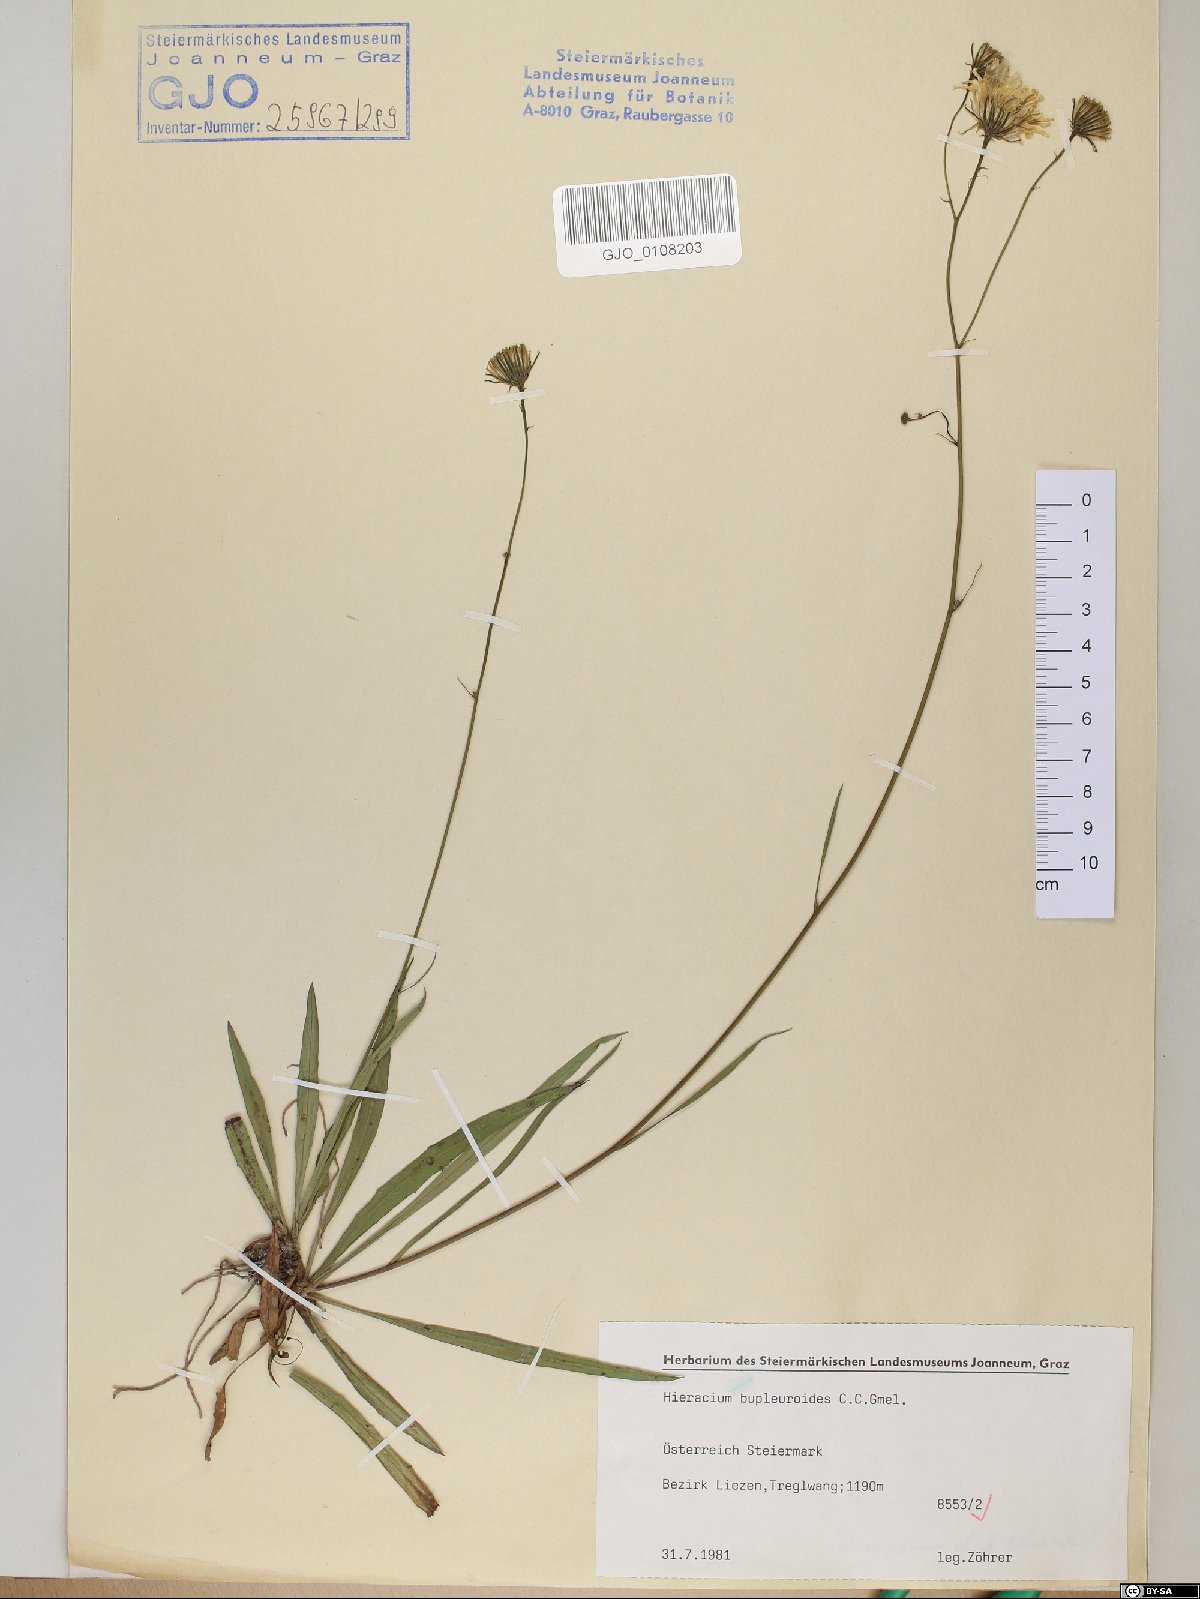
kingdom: Plantae
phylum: Tracheophyta
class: Magnoliopsida
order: Asterales
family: Asteraceae
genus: Hieracium
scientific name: Hieracium bupleuroides
